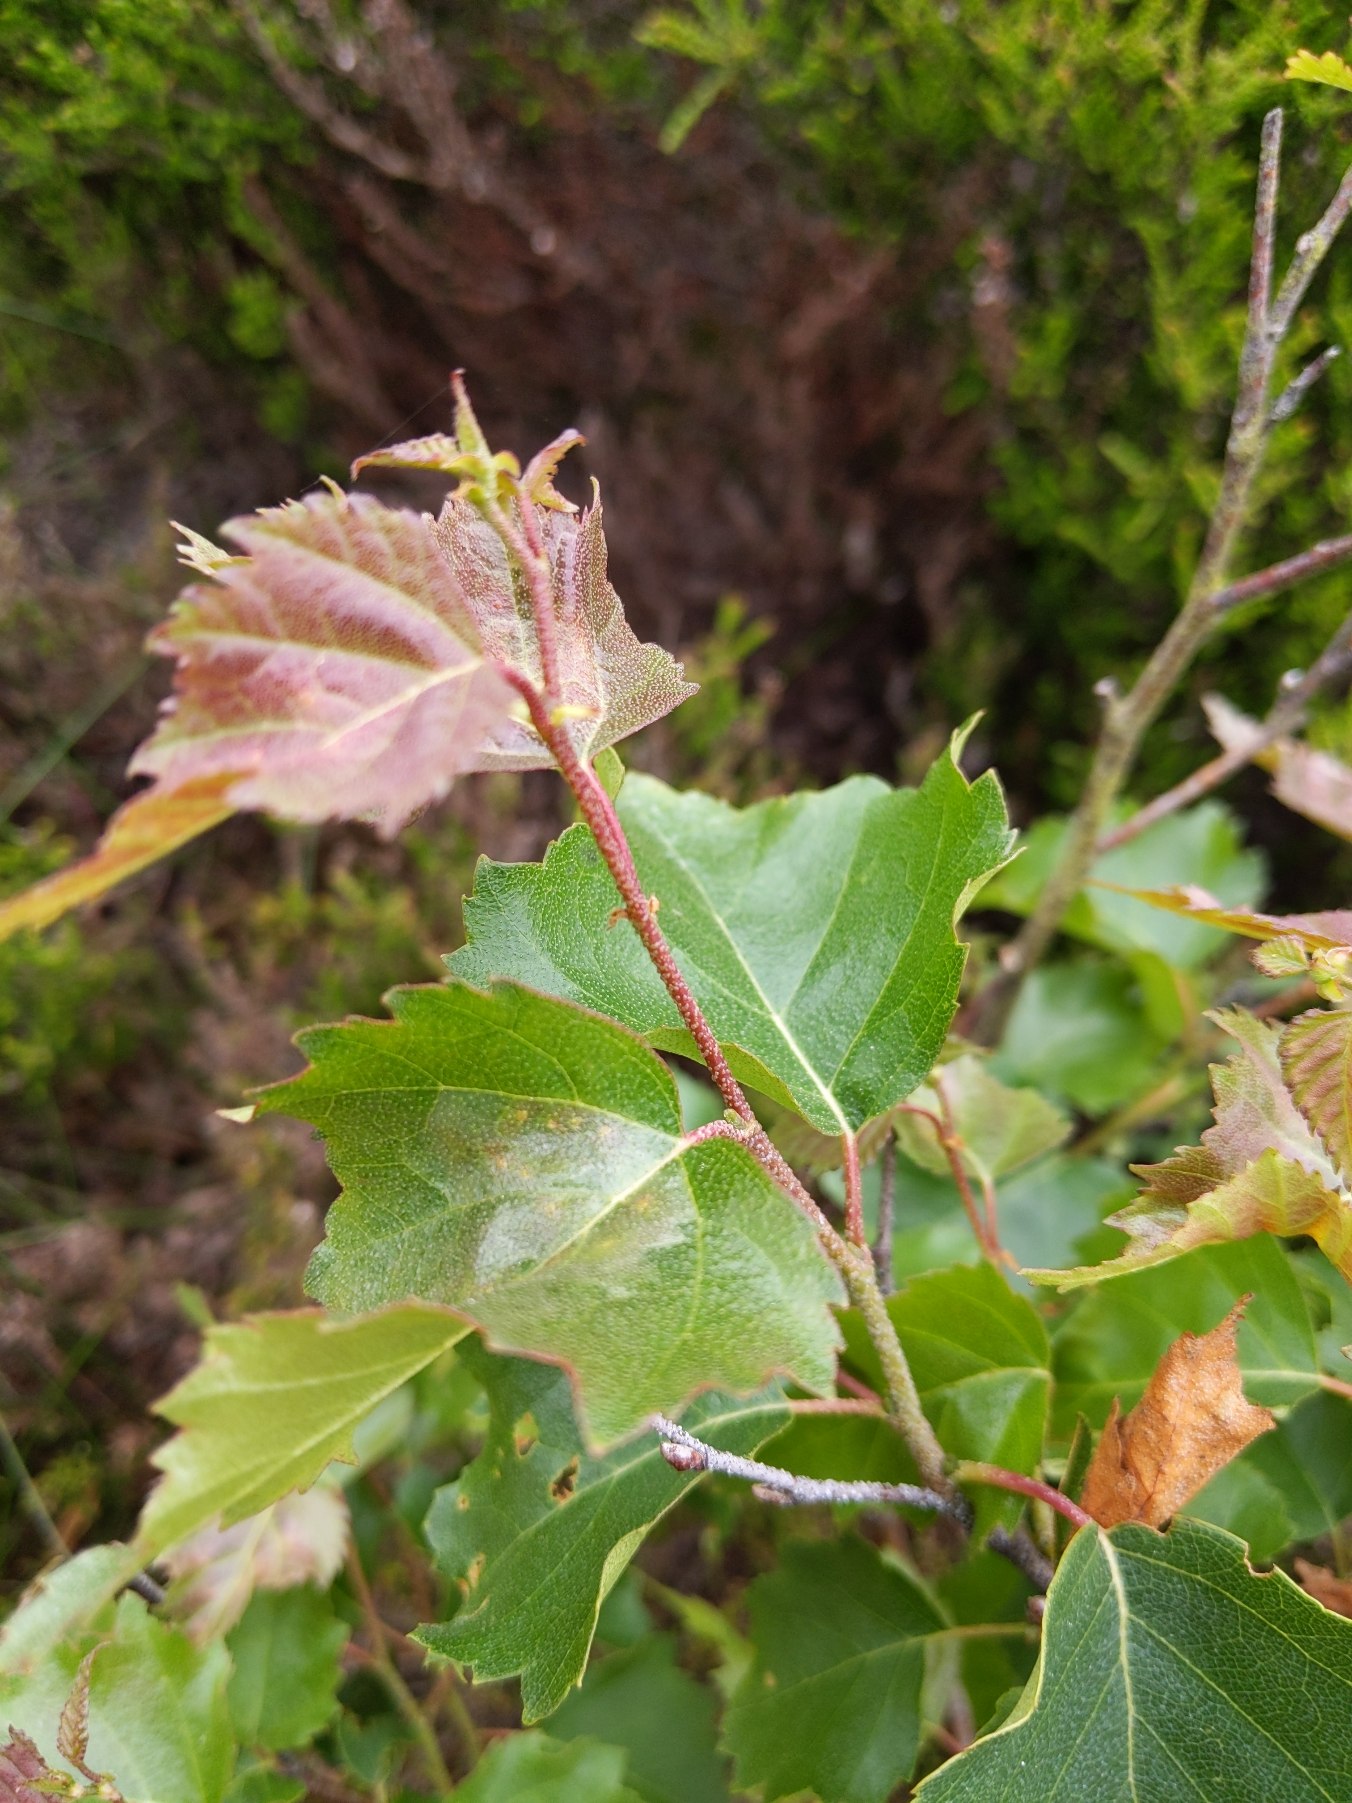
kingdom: Plantae
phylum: Tracheophyta
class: Magnoliopsida
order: Fagales
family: Betulaceae
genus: Betula
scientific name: Betula pendula
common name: Vorte-birk
